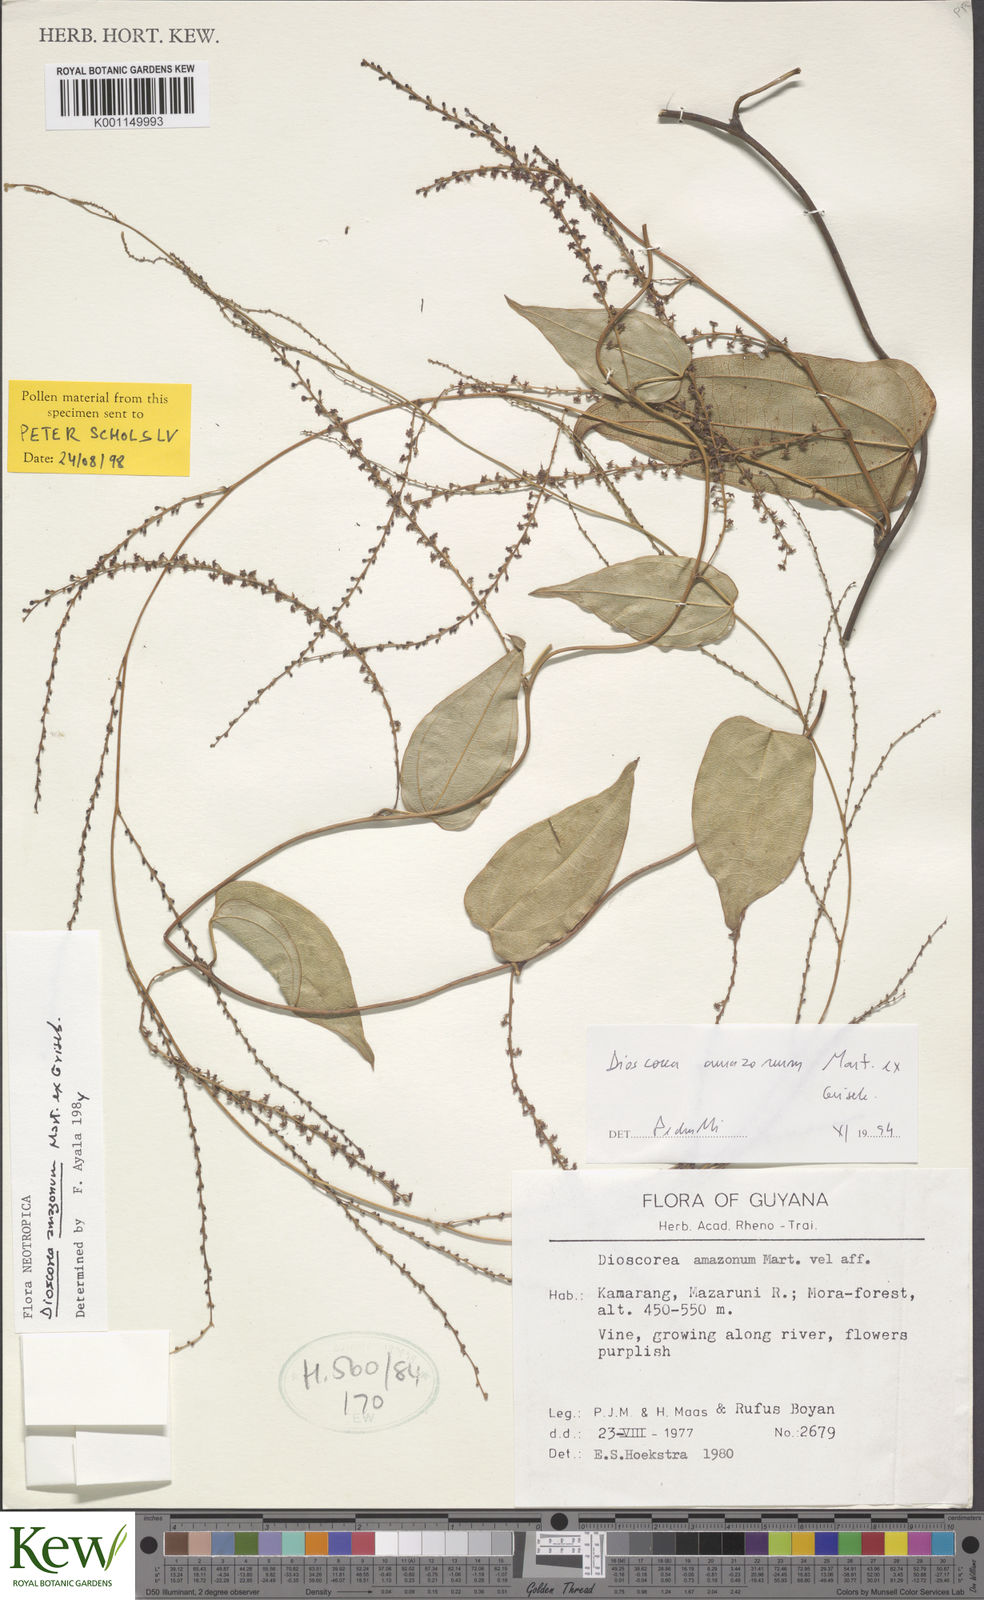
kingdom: Plantae
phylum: Tracheophyta
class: Liliopsida
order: Dioscoreales
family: Dioscoreaceae
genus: Dioscorea
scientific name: Dioscorea amazonum
